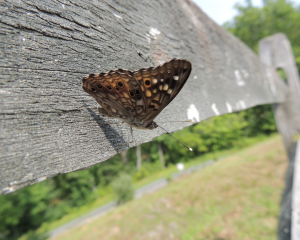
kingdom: Animalia
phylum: Arthropoda
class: Insecta
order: Lepidoptera
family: Nymphalidae
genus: Asterocampa
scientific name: Asterocampa celtis
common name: Hackberry Emperor
